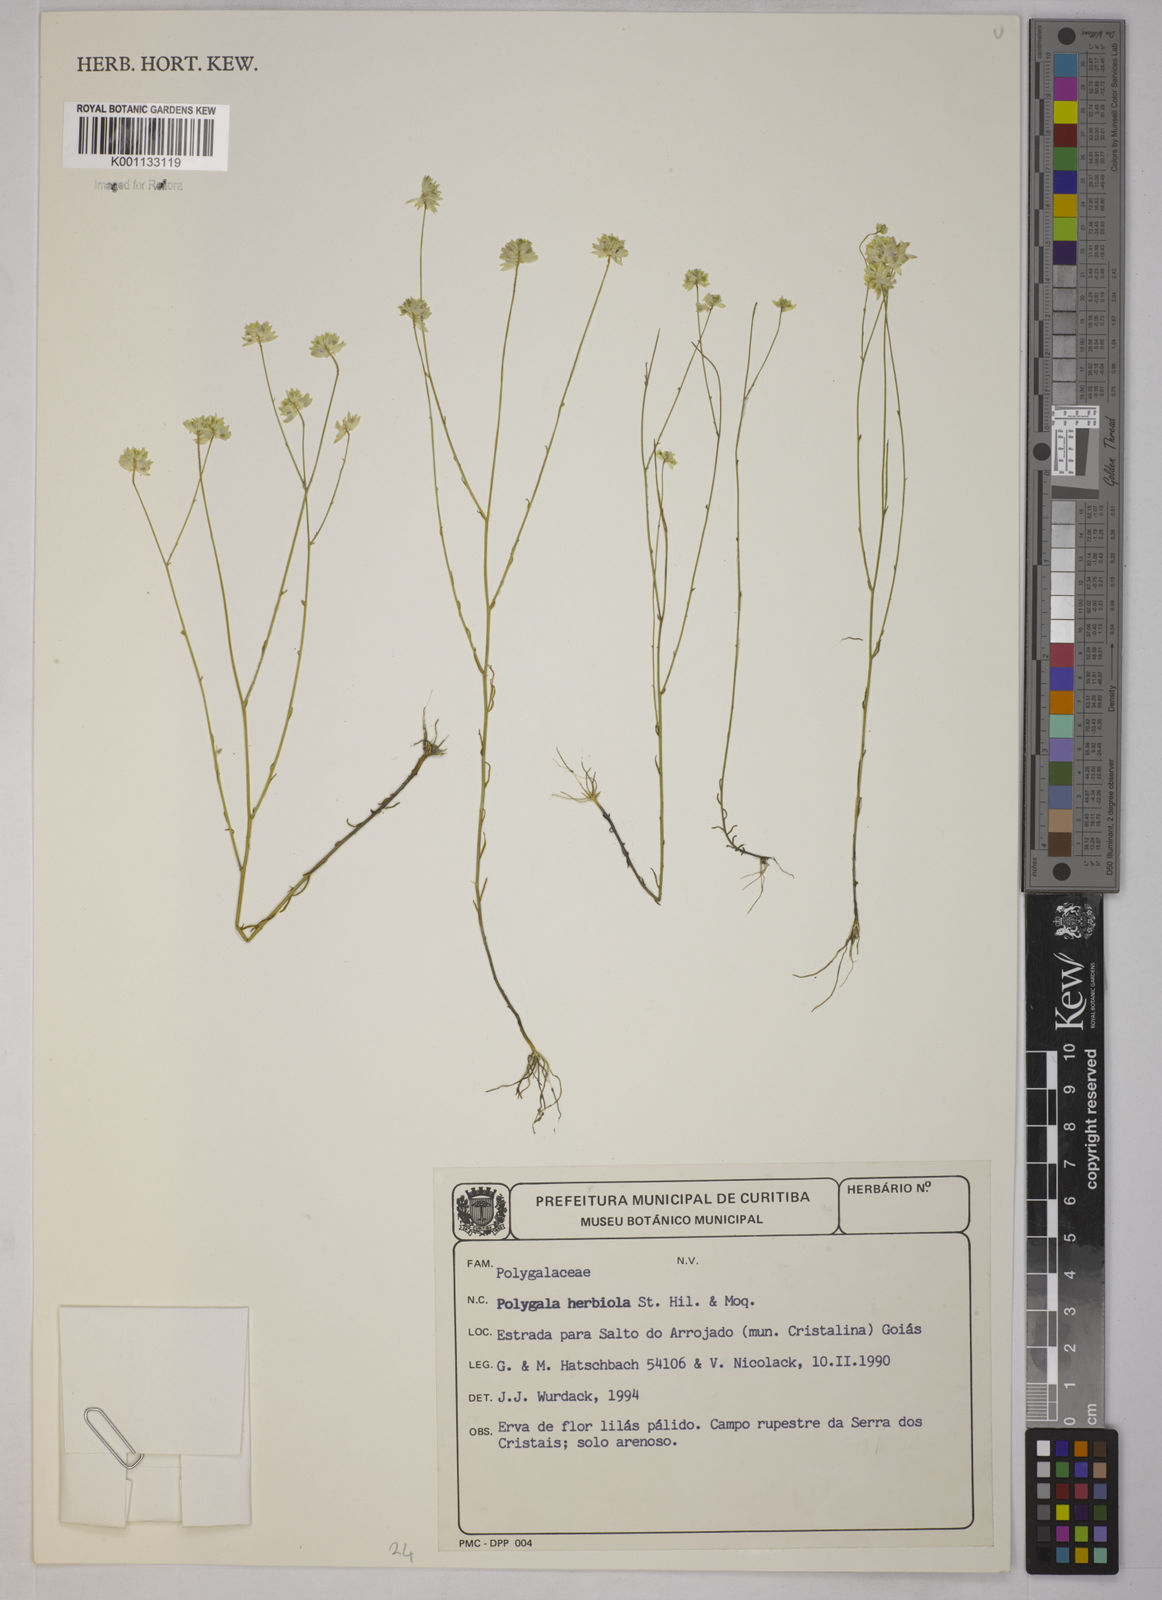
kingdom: Plantae
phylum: Tracheophyta
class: Magnoliopsida
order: Fabales
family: Polygalaceae
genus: Polygala
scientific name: Polygala herbiola
